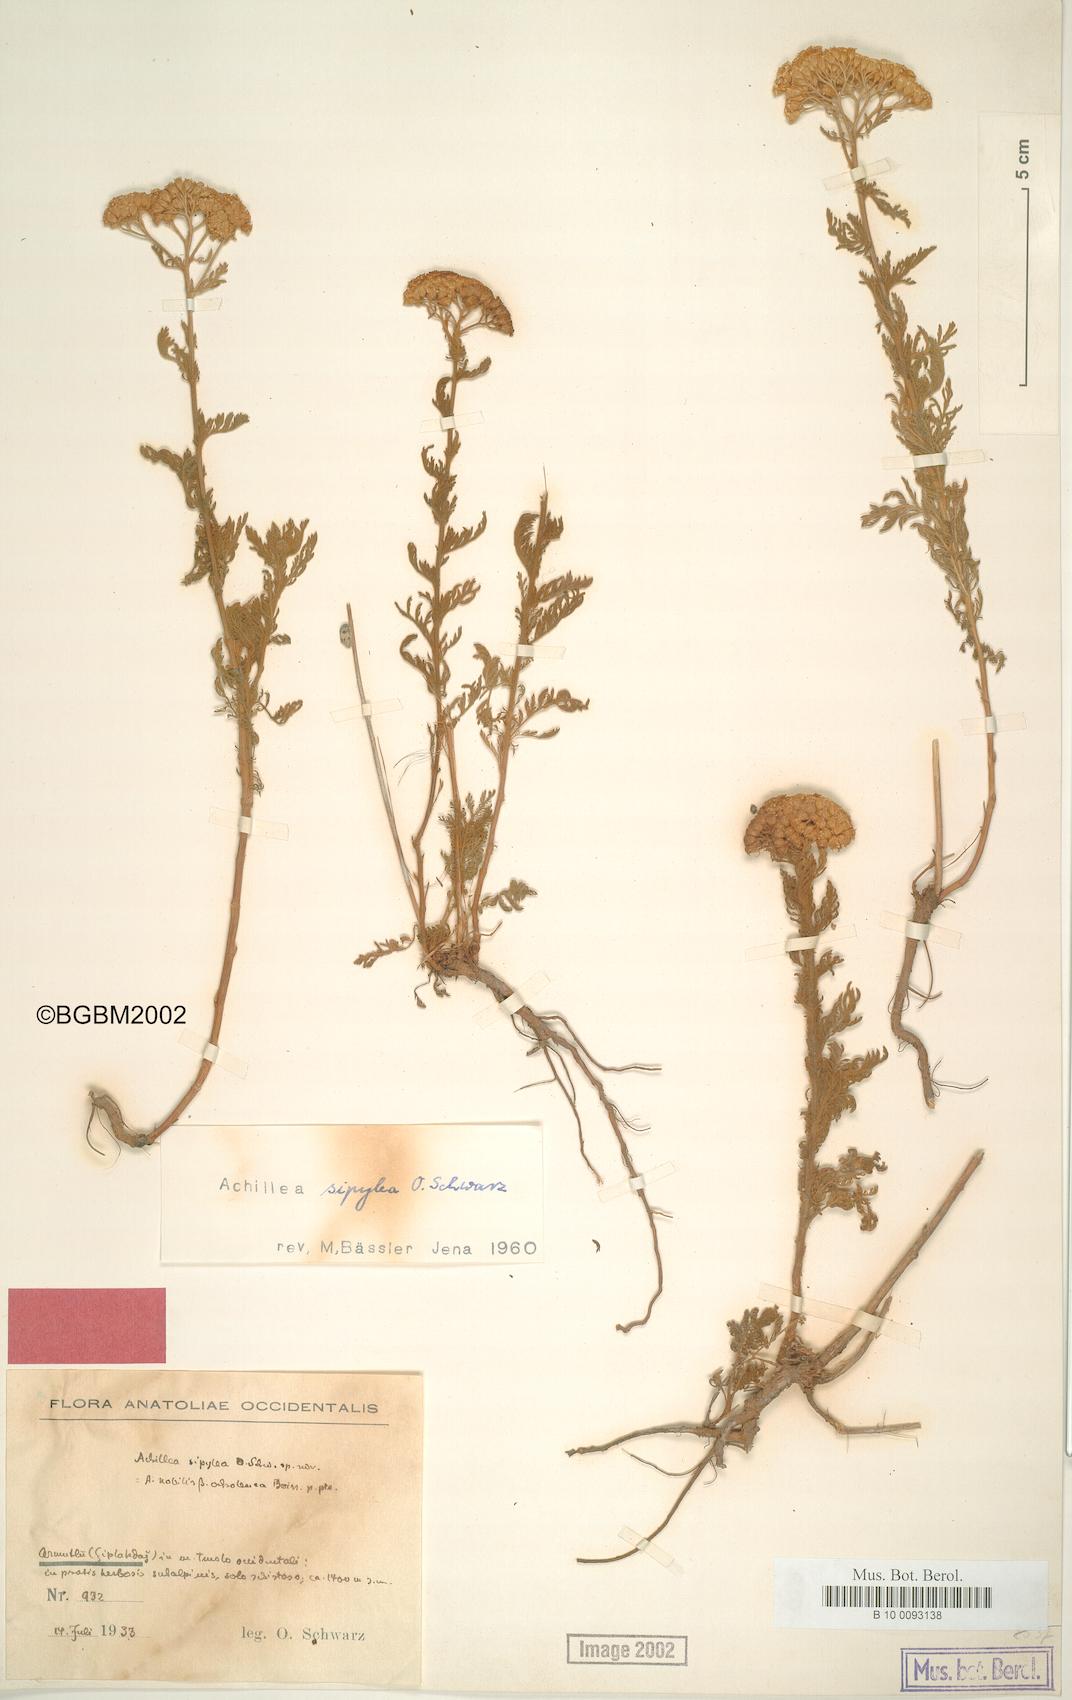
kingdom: Plantae
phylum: Tracheophyta
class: Magnoliopsida
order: Asterales
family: Asteraceae
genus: Achillea
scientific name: Achillea nobilis
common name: Noble yarrow
